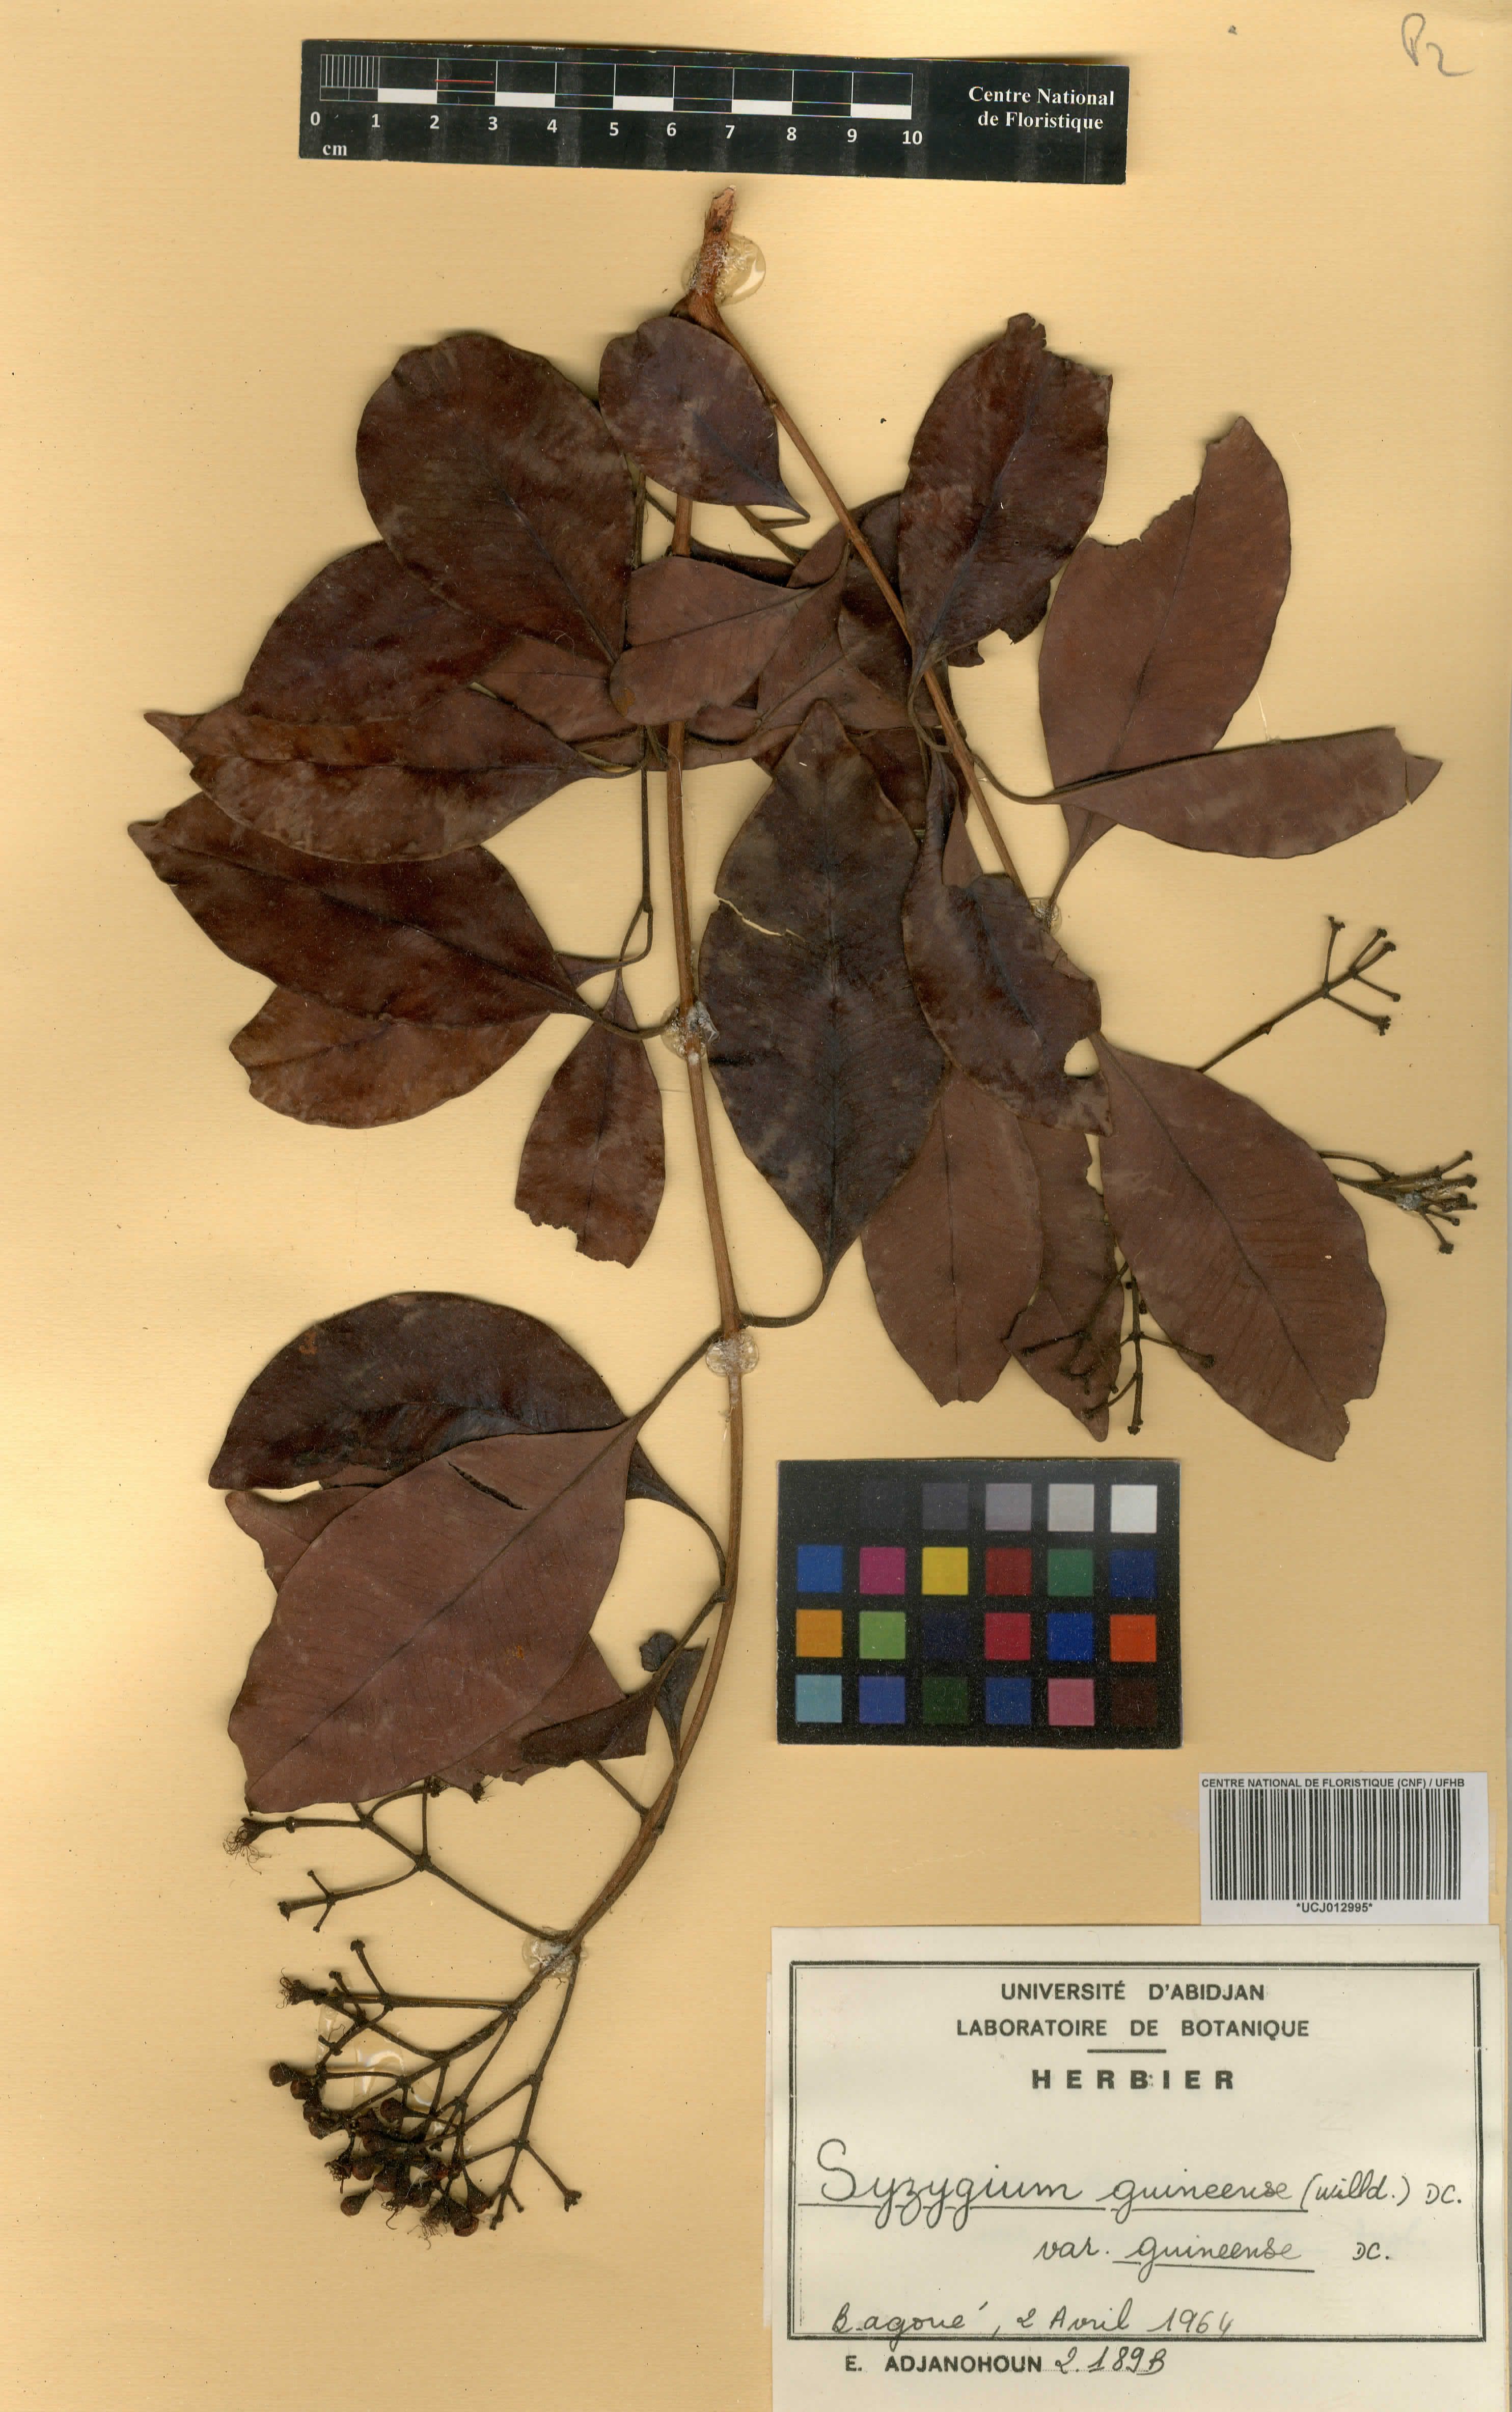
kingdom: Plantae
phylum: Tracheophyta
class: Magnoliopsida
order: Myrtales
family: Myrtaceae
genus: Syzygium
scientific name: Syzygium guineense
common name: Water-pear
